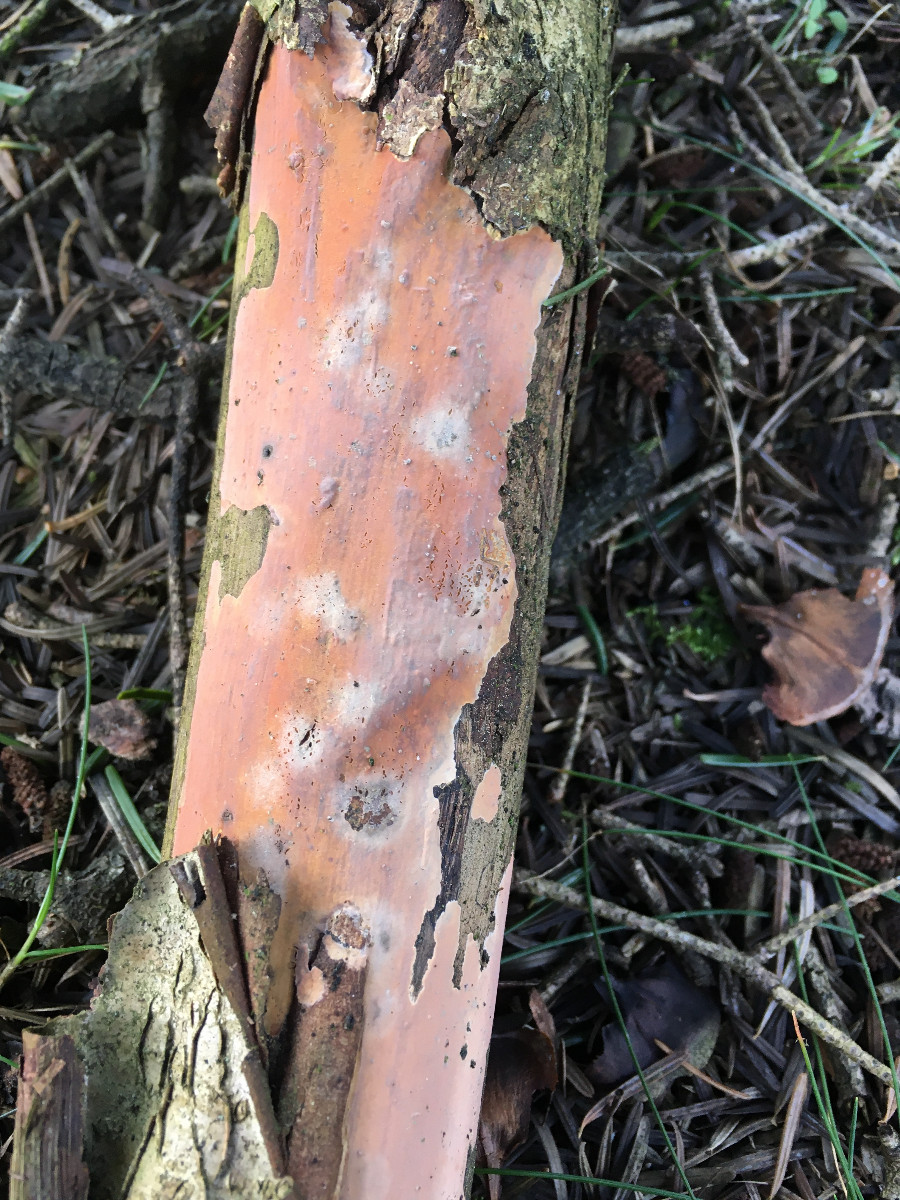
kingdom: Fungi
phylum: Basidiomycota
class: Agaricomycetes
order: Russulales
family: Peniophoraceae
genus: Peniophora
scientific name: Peniophora incarnata
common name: laksefarvet voksskind
